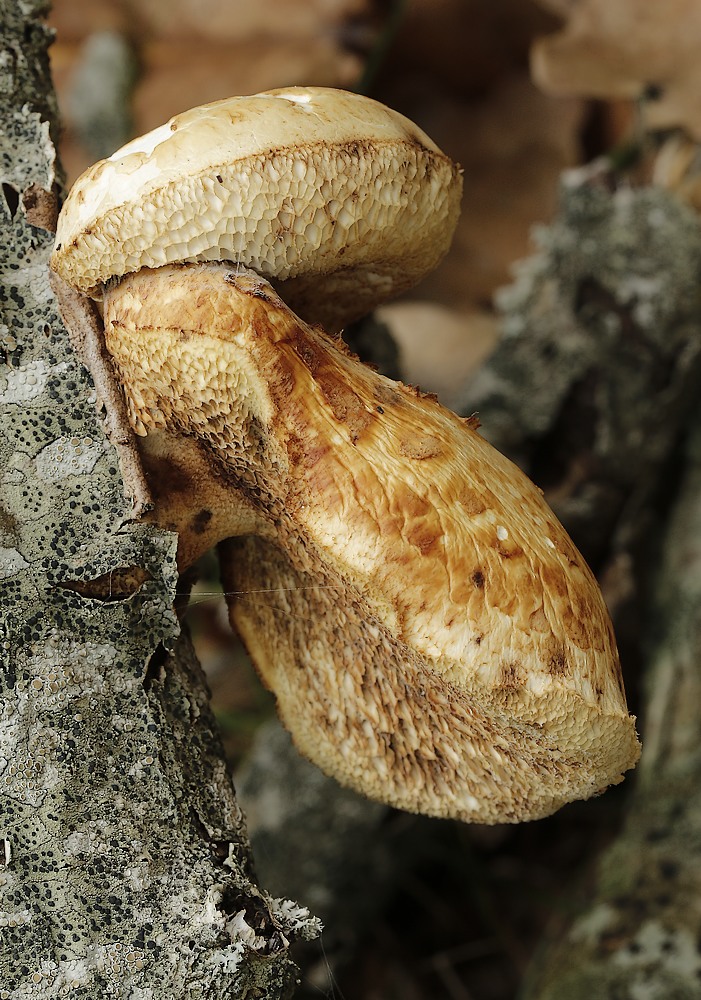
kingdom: Fungi
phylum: Basidiomycota
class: Agaricomycetes
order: Polyporales
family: Polyporaceae
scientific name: Polyporaceae
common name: poresvampfamilien
